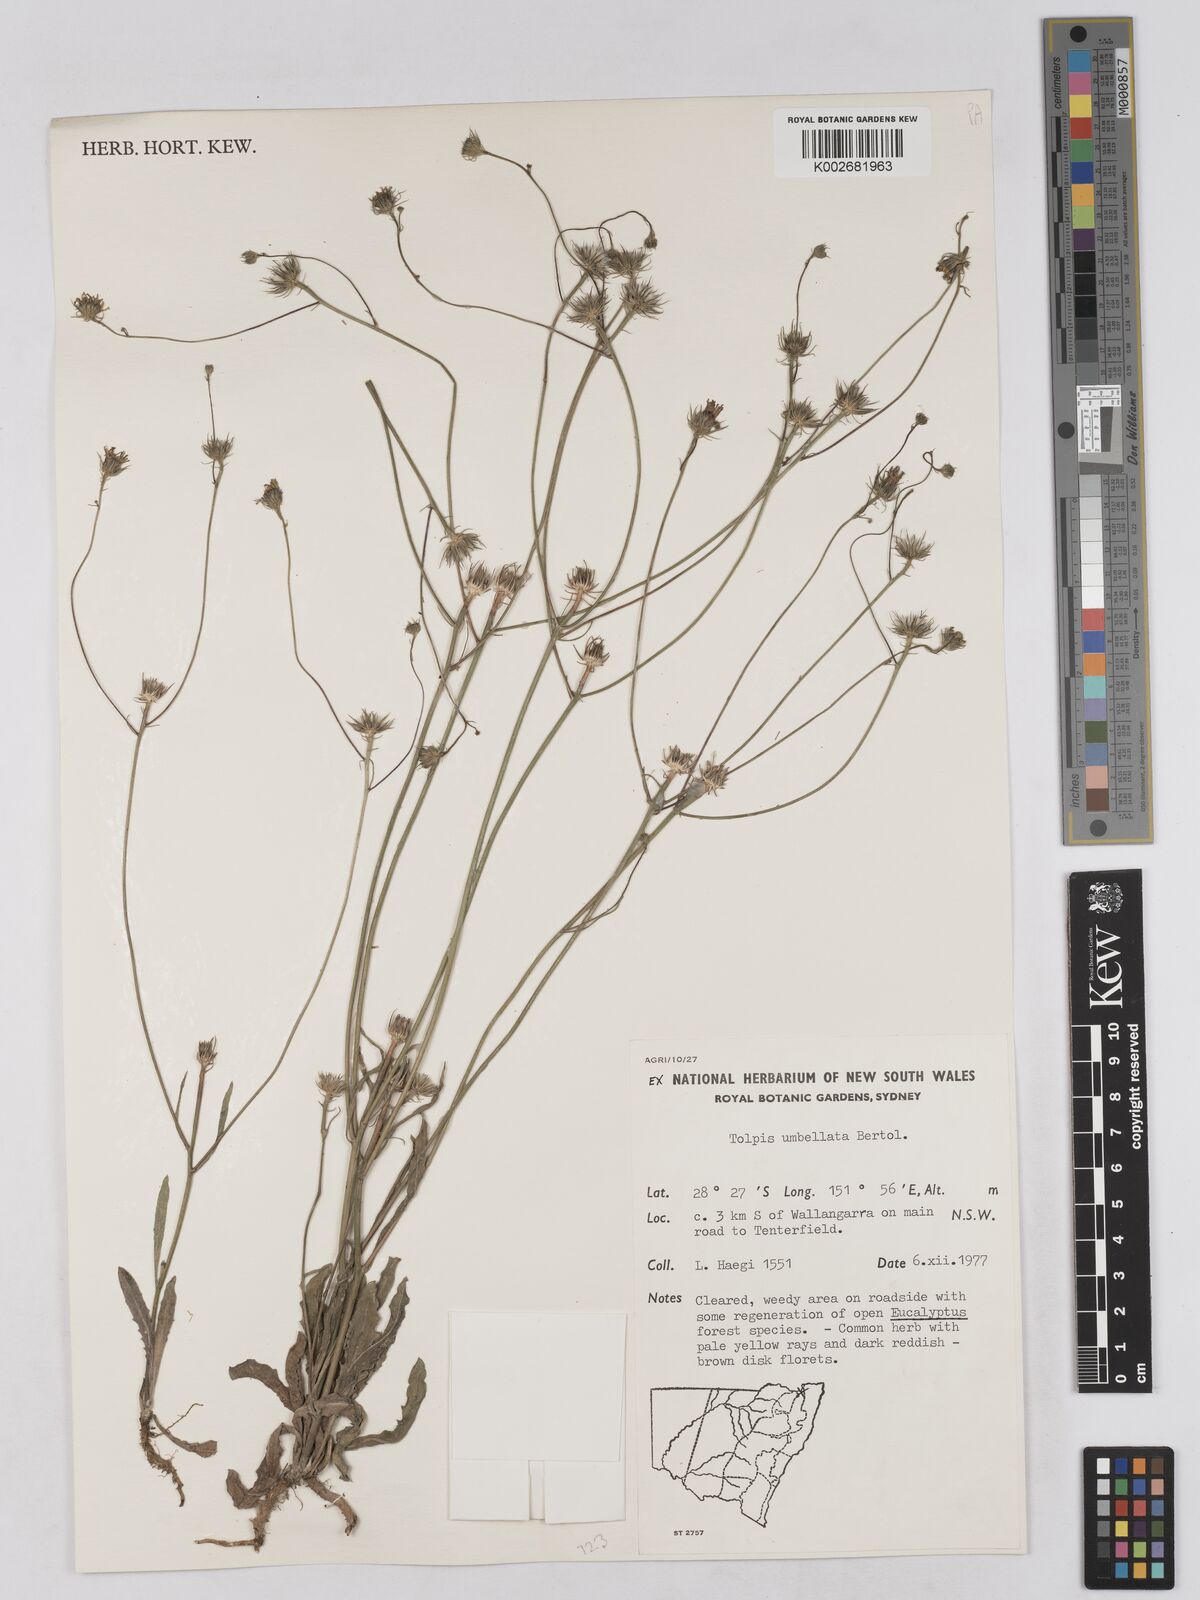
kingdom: Plantae
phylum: Tracheophyta
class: Magnoliopsida
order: Asterales
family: Asteraceae
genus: Tolpis
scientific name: Tolpis umbellata
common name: Yellow hawkweed
